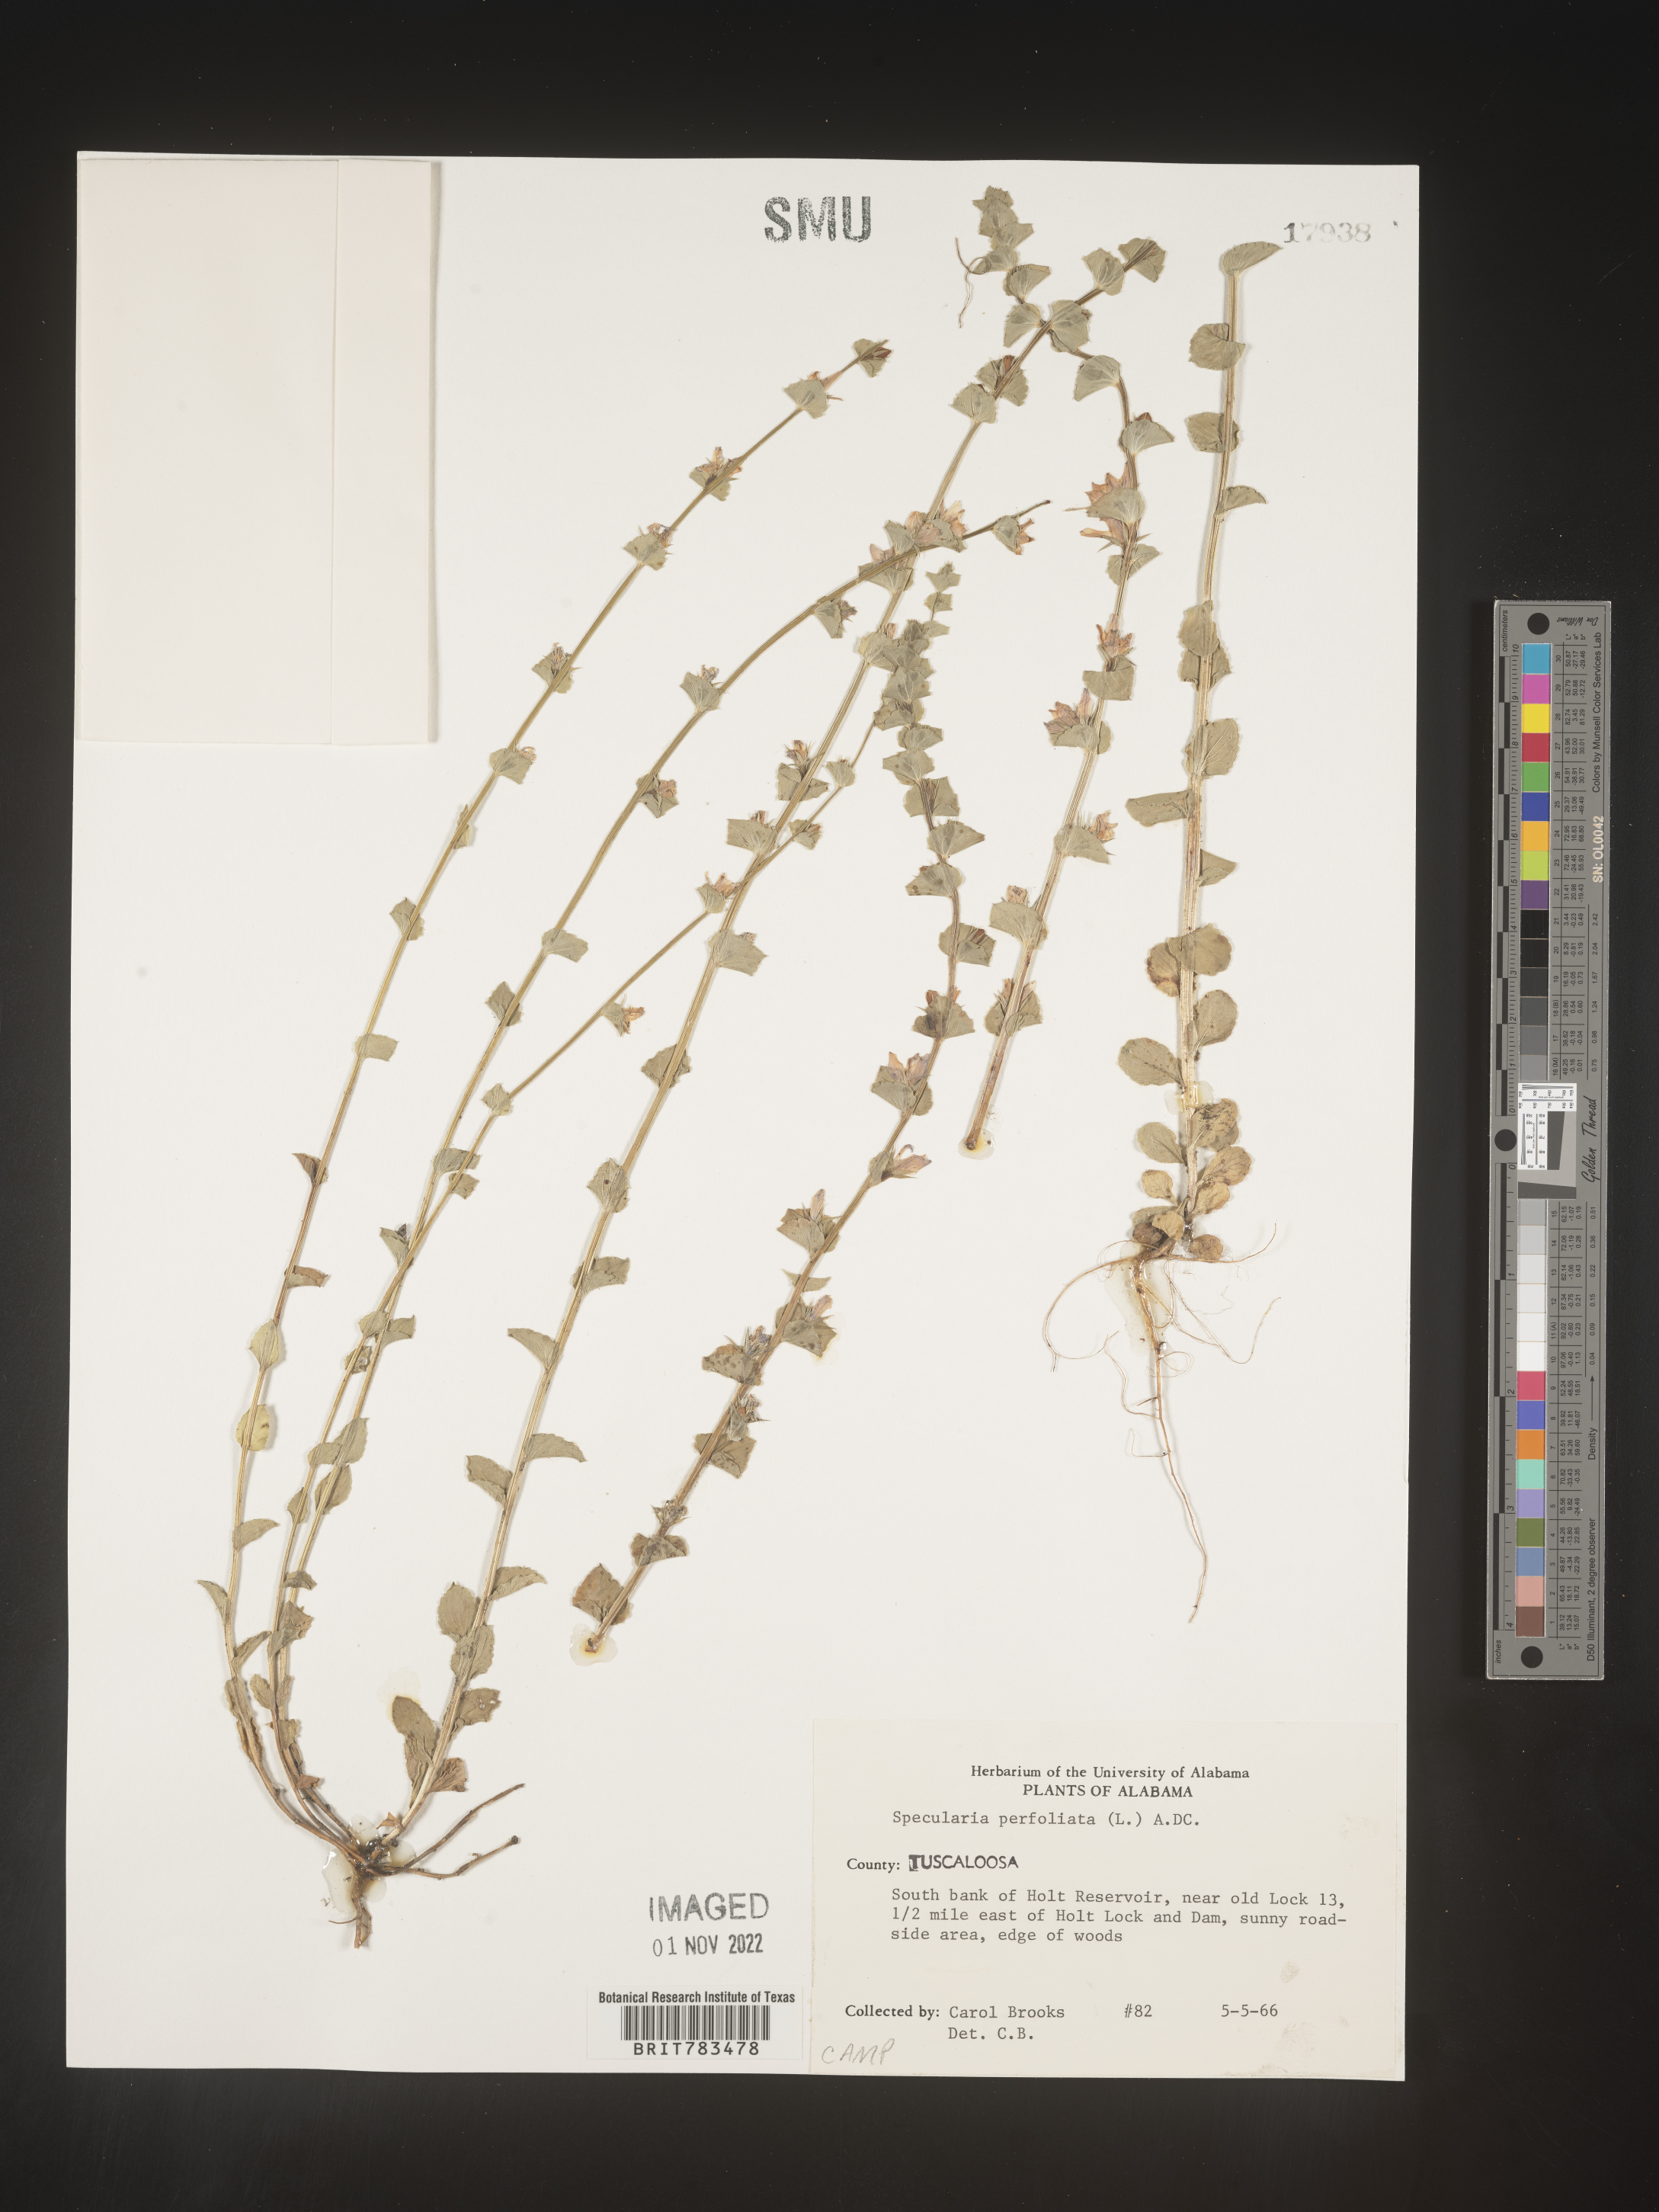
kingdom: Plantae
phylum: Tracheophyta
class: Magnoliopsida
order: Asterales
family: Campanulaceae
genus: Triodanis
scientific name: Triodanis perfoliata
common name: Clasping venus' looking-glass
